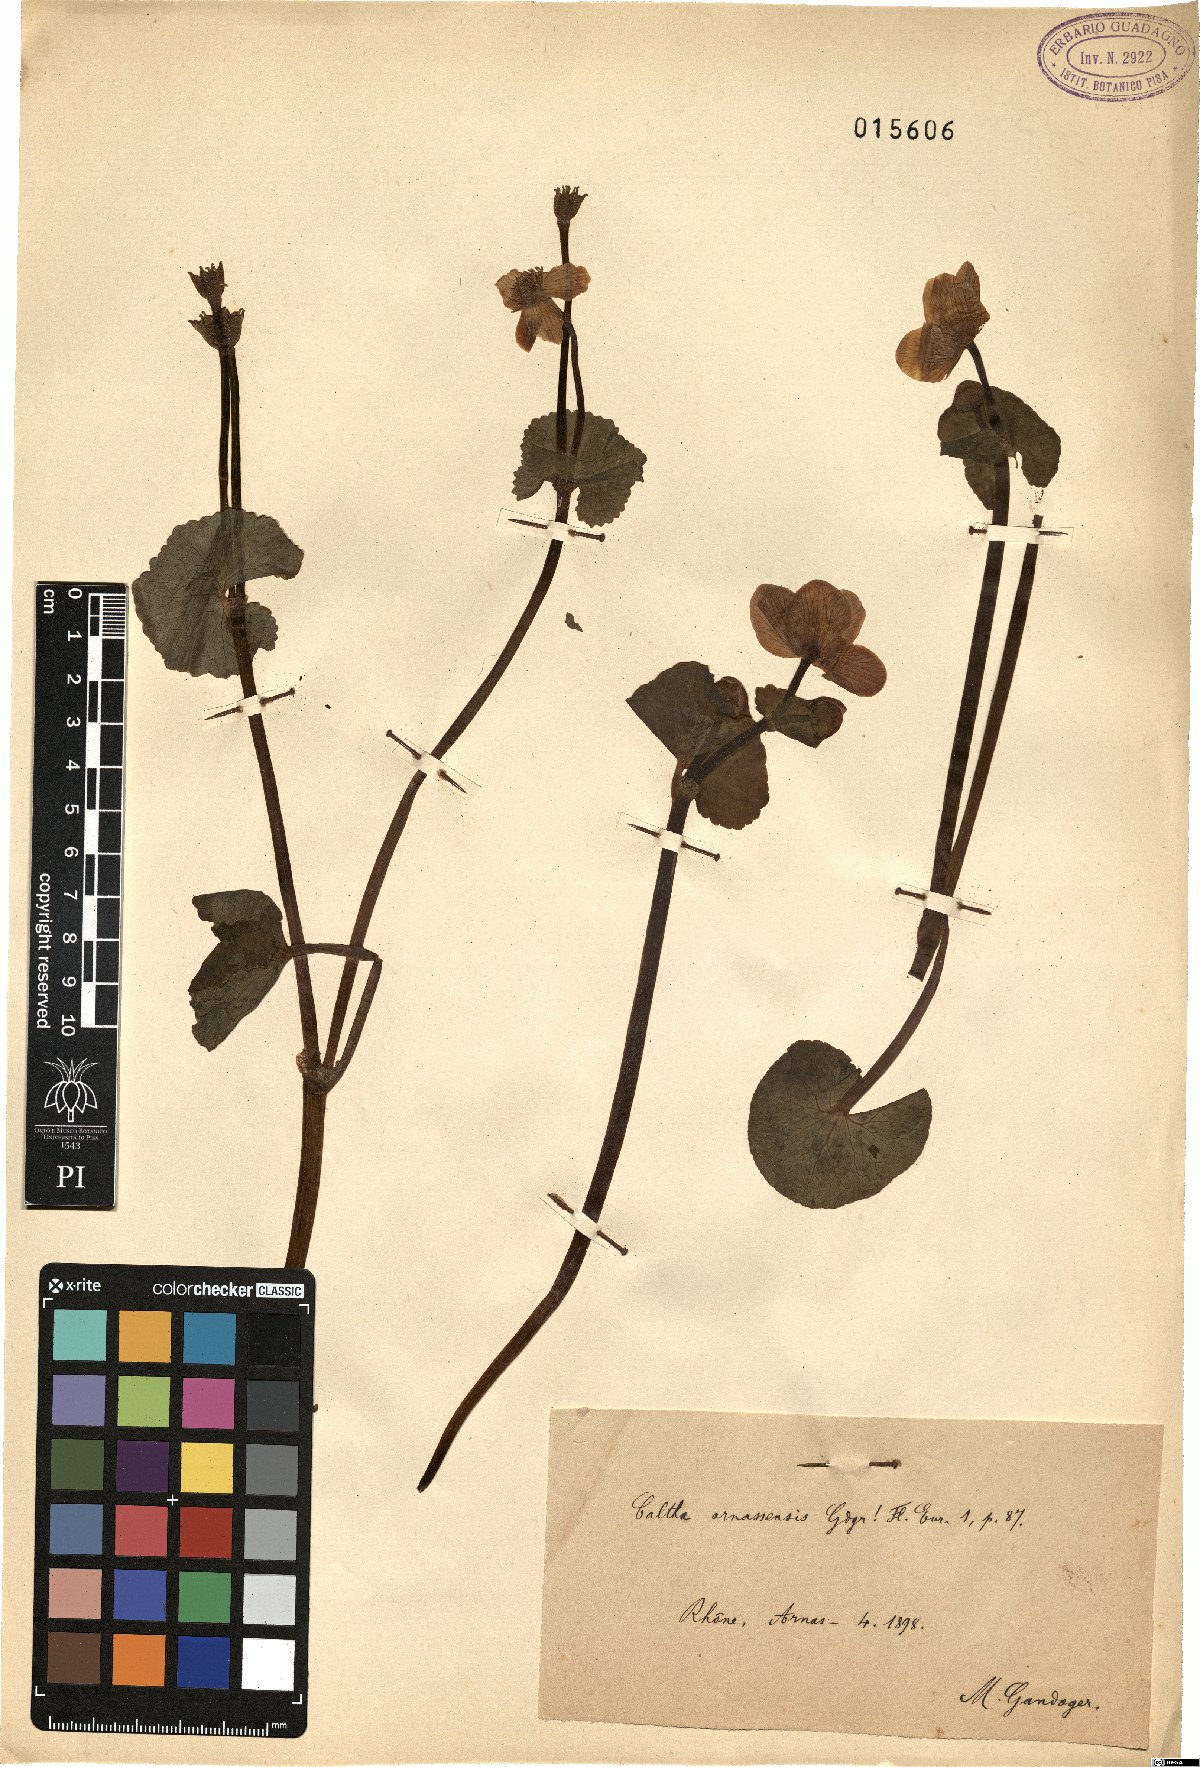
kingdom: Plantae
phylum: Tracheophyta
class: Magnoliopsida
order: Ranunculales
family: Ranunculaceae
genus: Caltha
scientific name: Caltha
